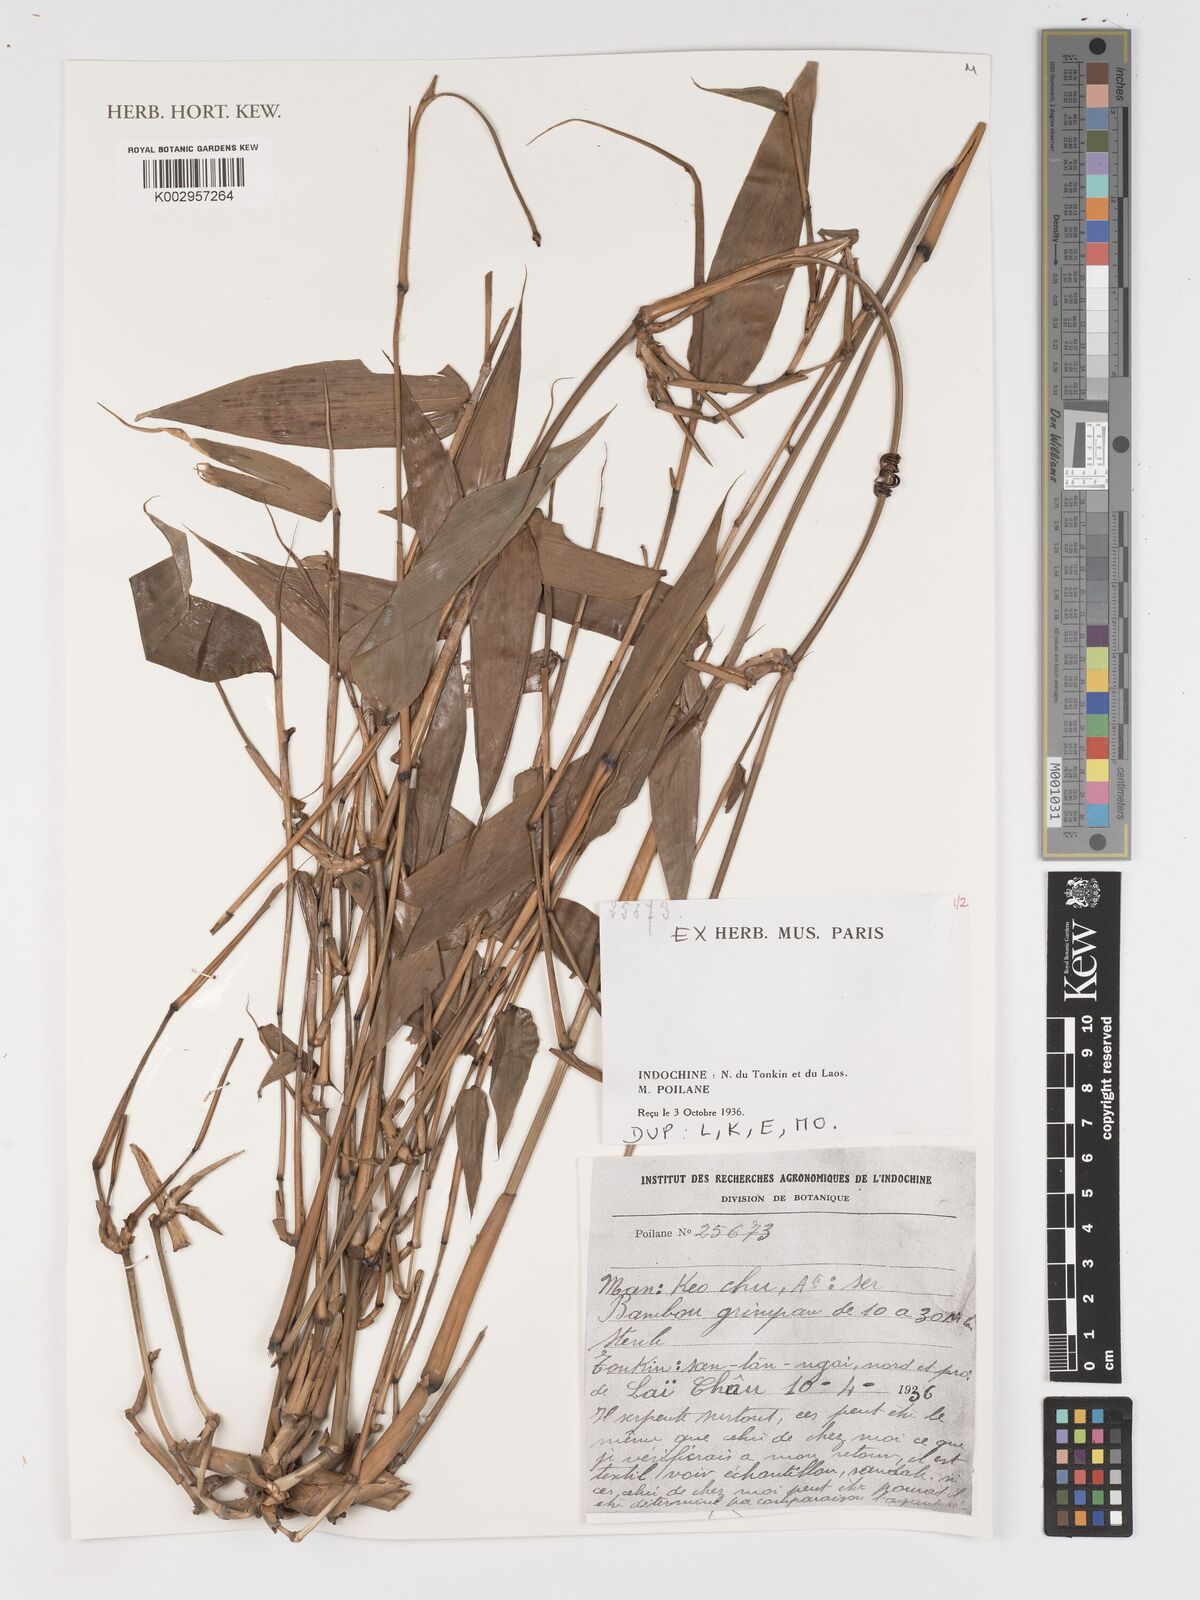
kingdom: Plantae
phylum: Tracheophyta
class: Liliopsida
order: Poales
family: Poaceae
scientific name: Poaceae
